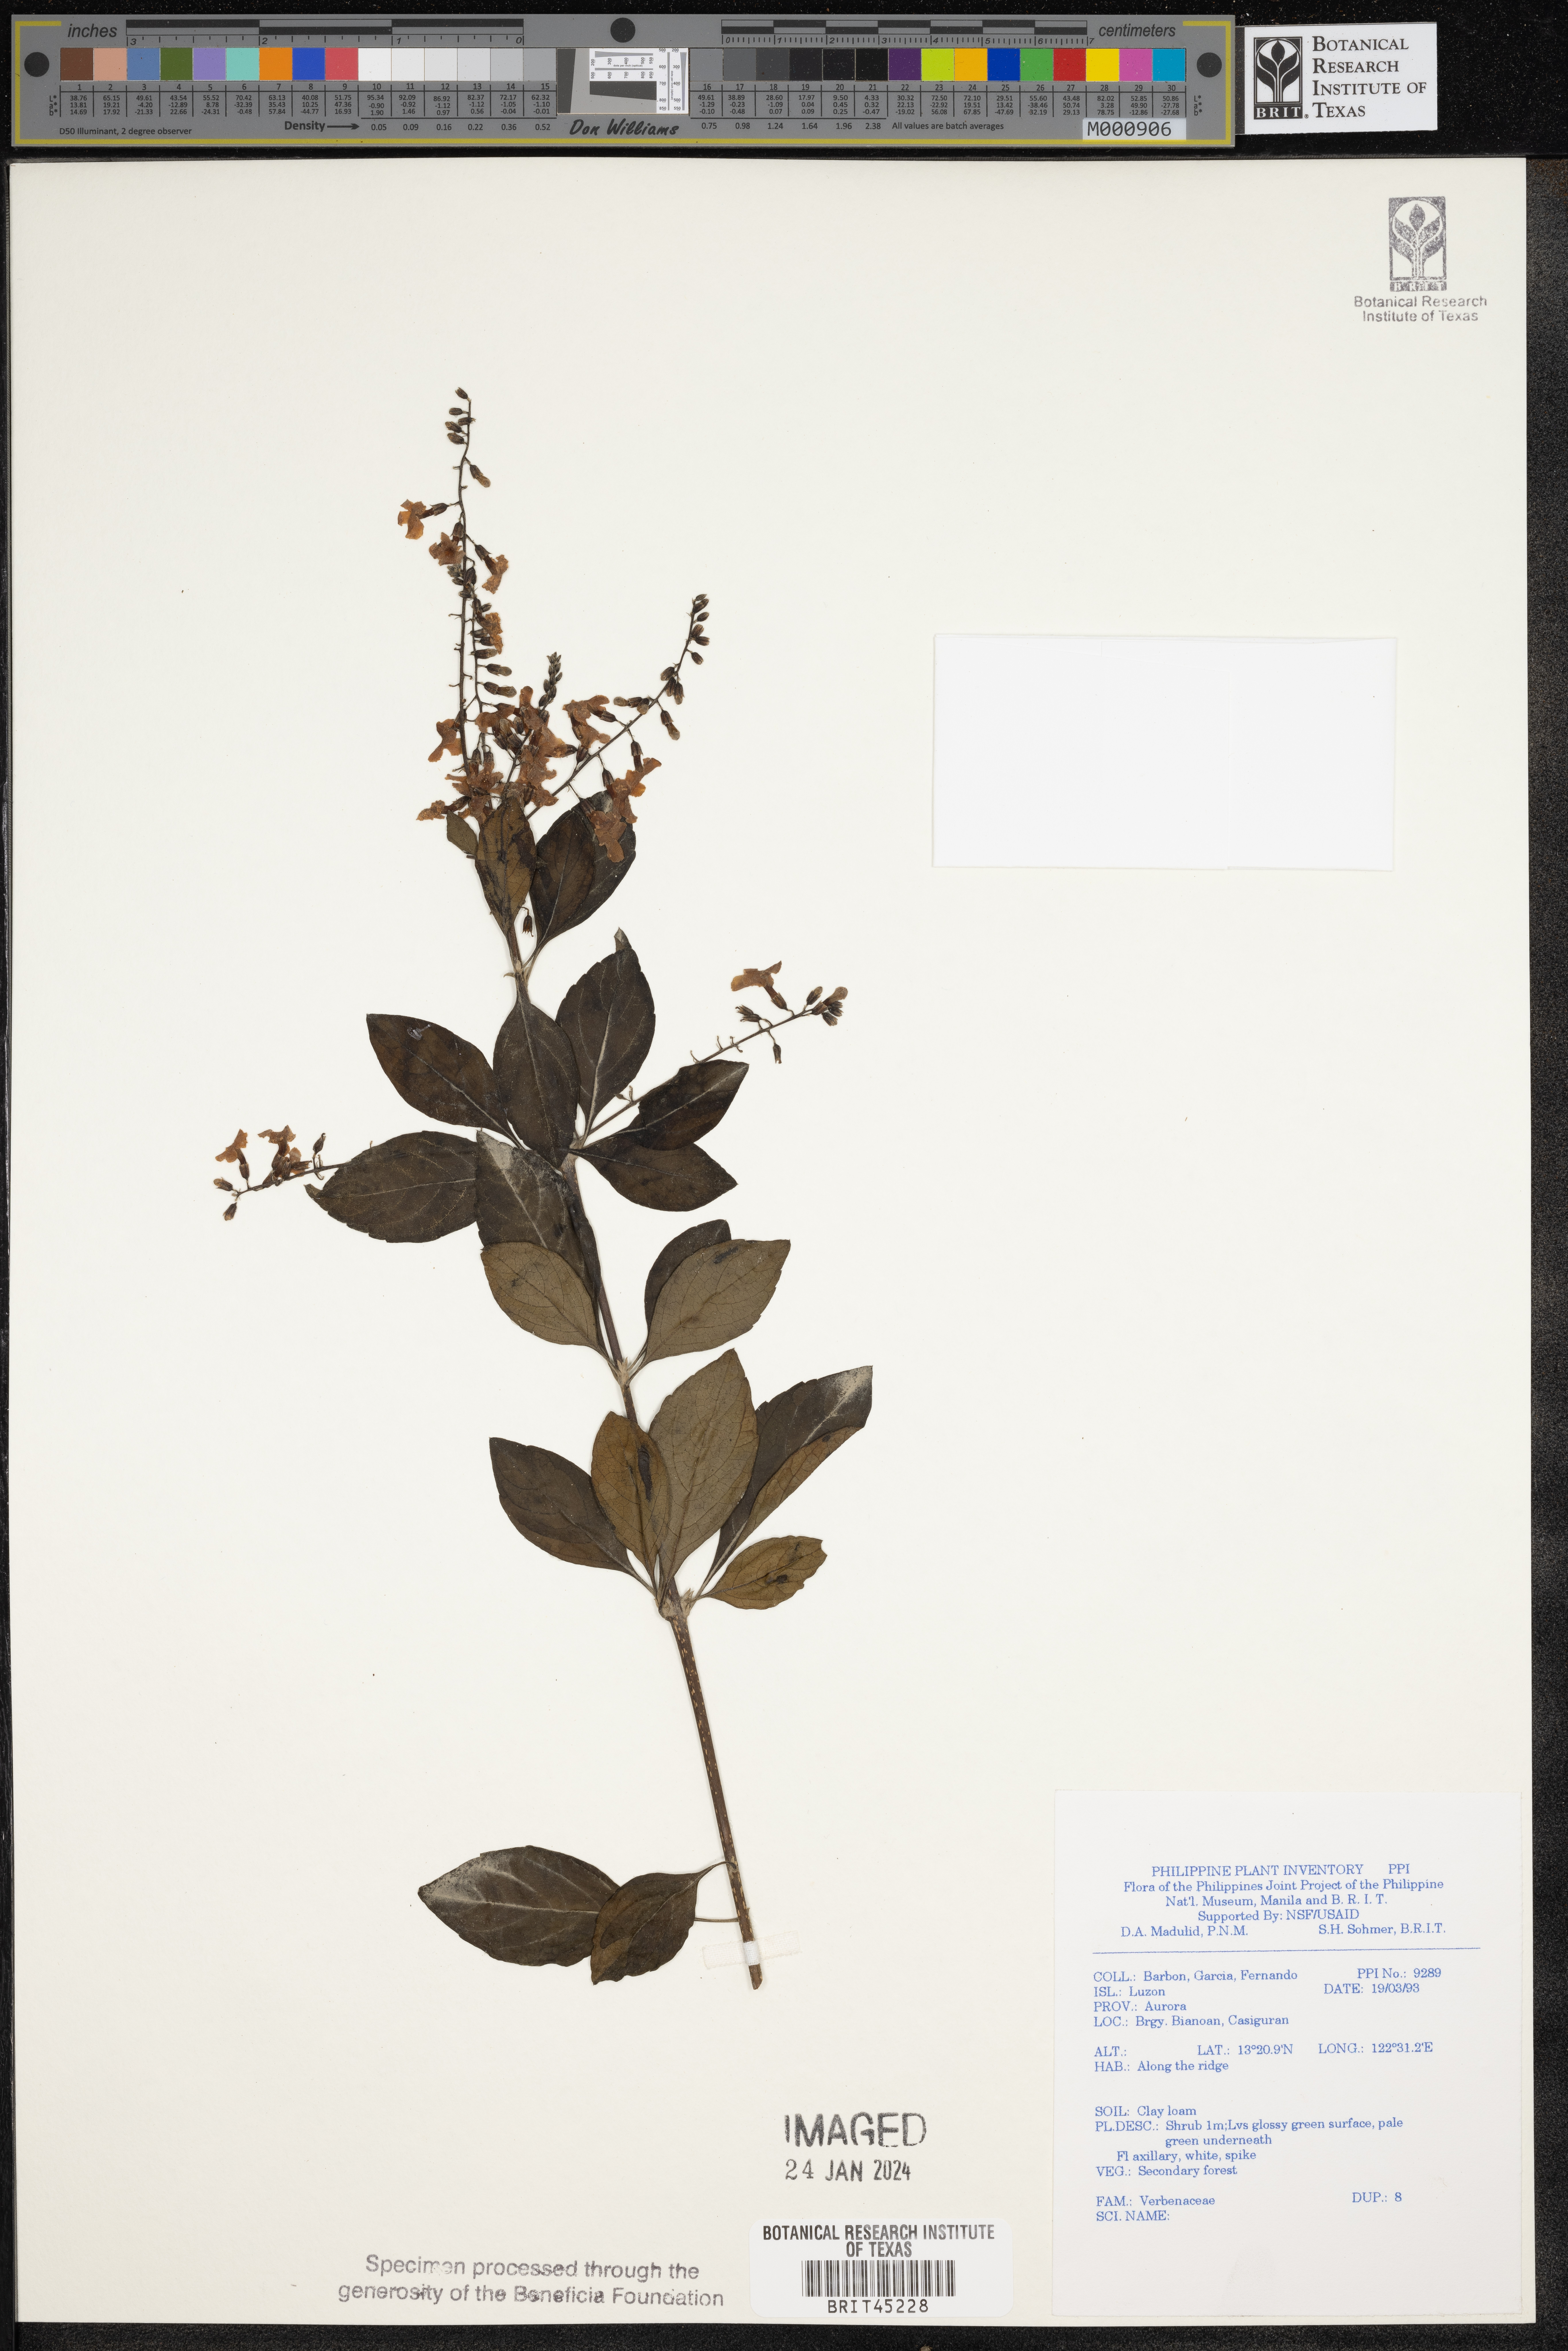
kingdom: Plantae
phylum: Tracheophyta
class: Magnoliopsida
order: Lamiales
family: Verbenaceae
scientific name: Verbenaceae
